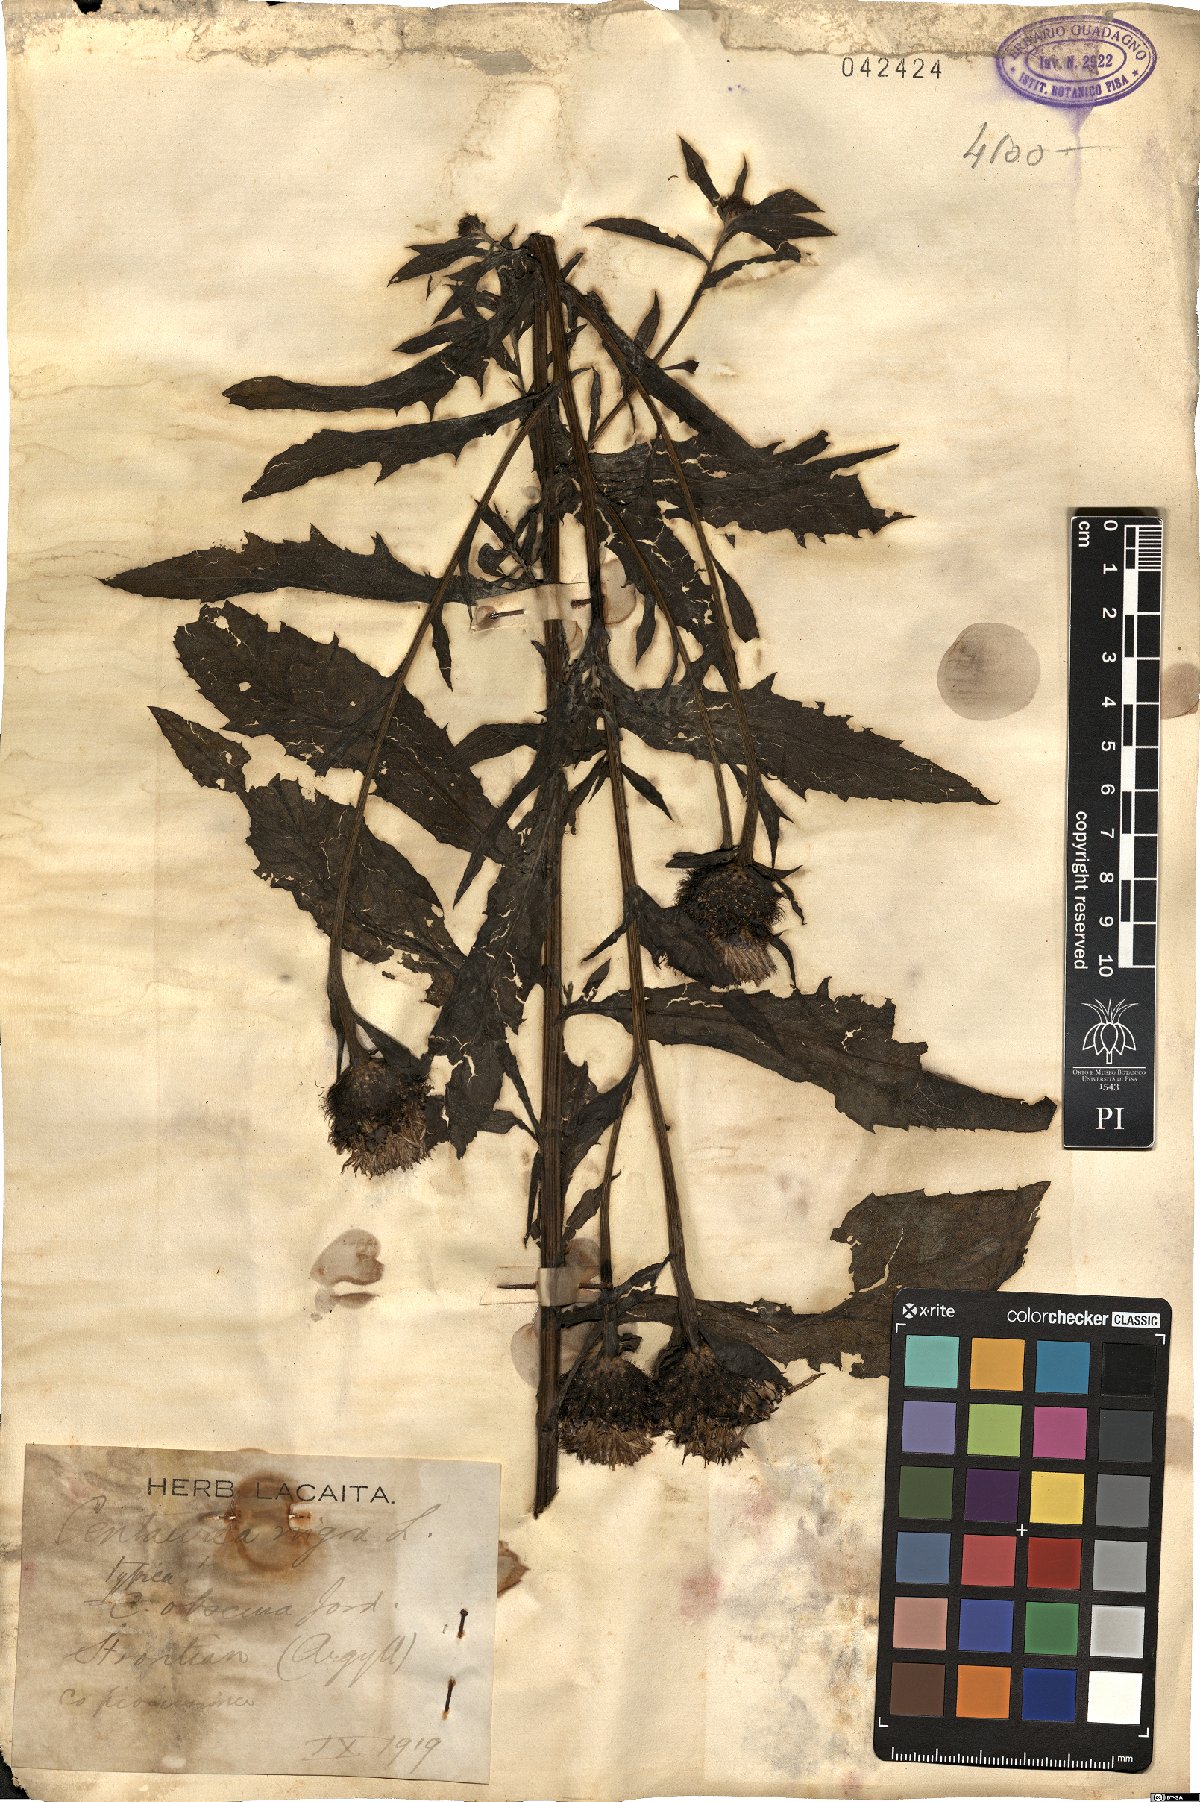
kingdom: Plantae
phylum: Tracheophyta
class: Magnoliopsida
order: Asterales
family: Asteraceae
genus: Centaurea
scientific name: Centaurea nigra
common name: Lesser knapweed
